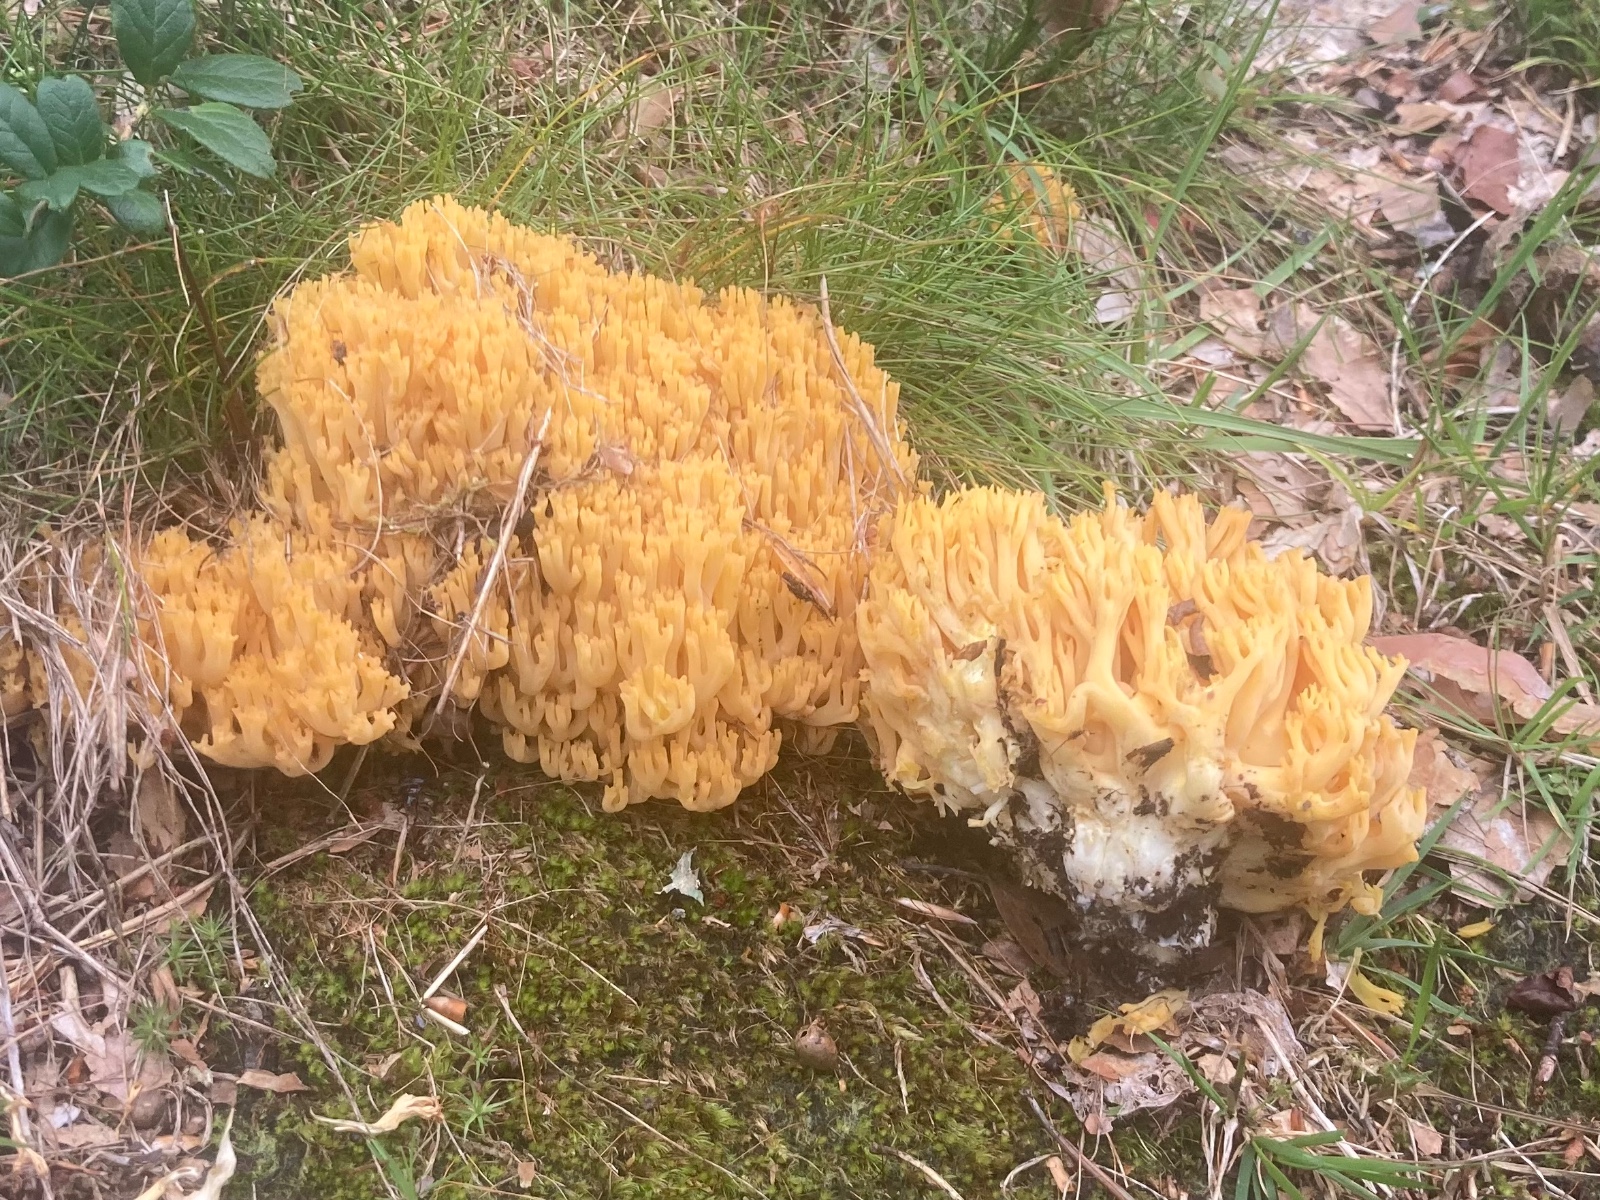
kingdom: Fungi
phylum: Basidiomycota
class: Agaricomycetes
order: Gomphales
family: Gomphaceae
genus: Ramaria
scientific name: Ramaria
